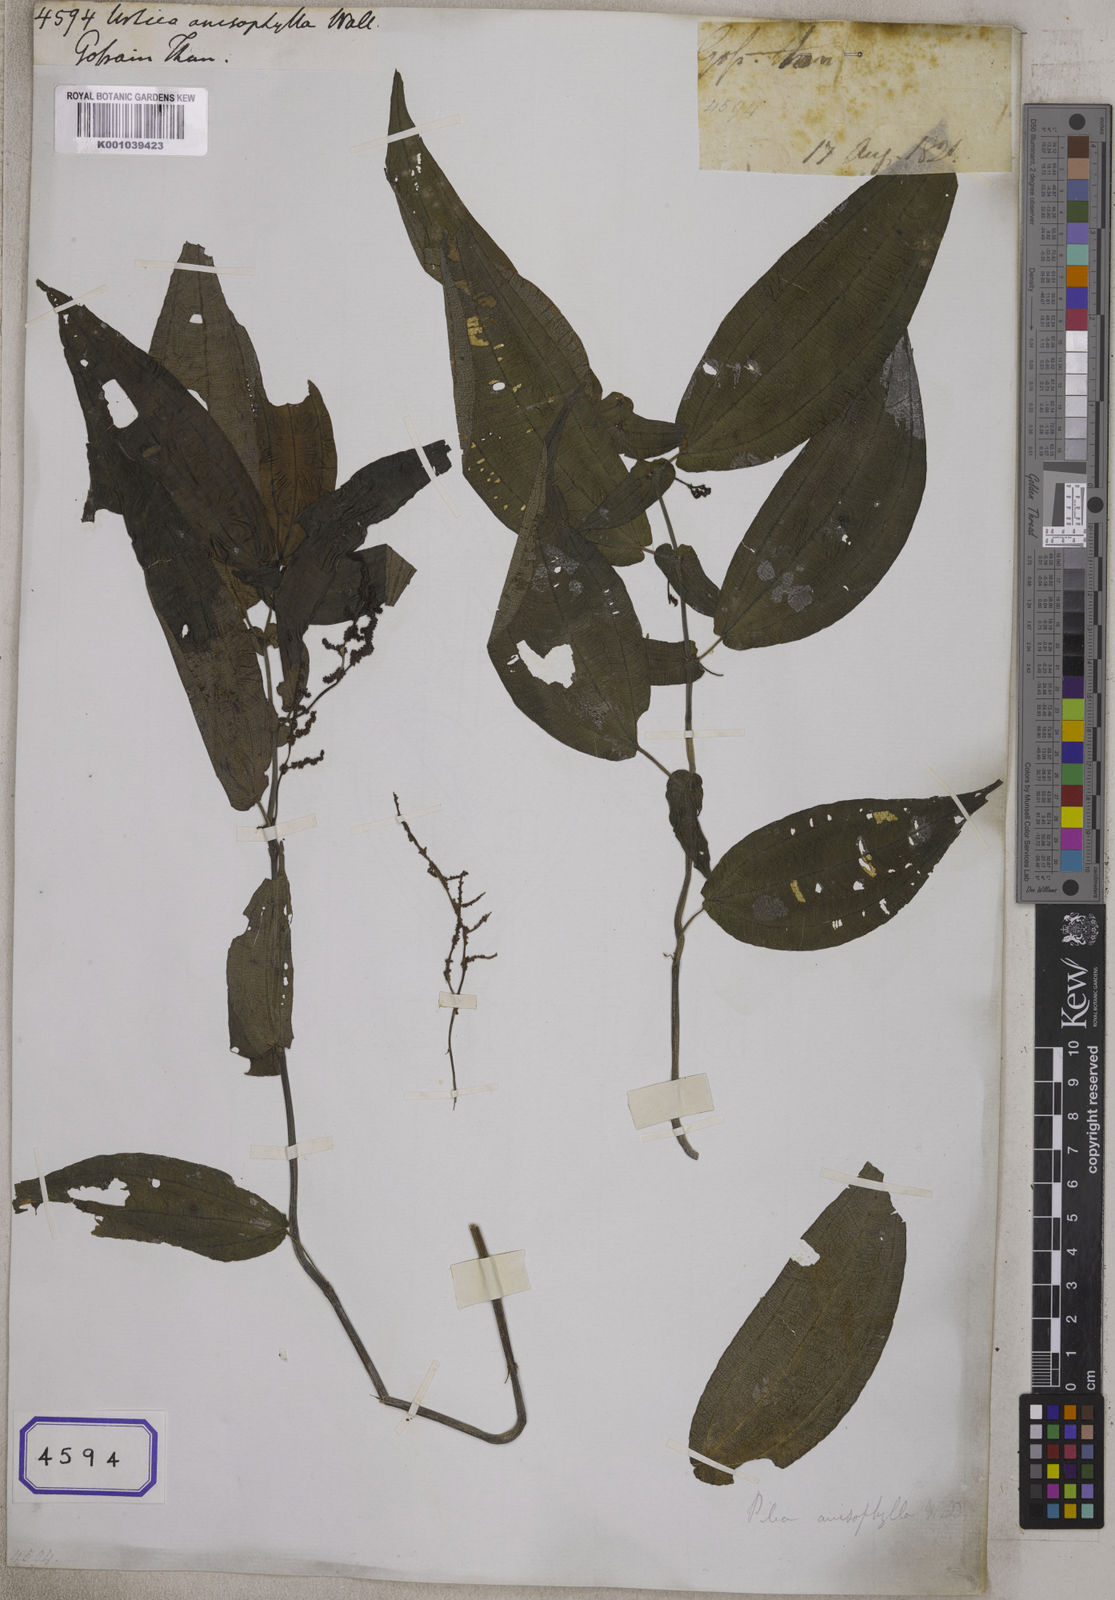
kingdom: Plantae
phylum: Tracheophyta
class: Magnoliopsida
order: Rosales
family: Urticaceae
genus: Pilea
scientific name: Pilea anisophylla
